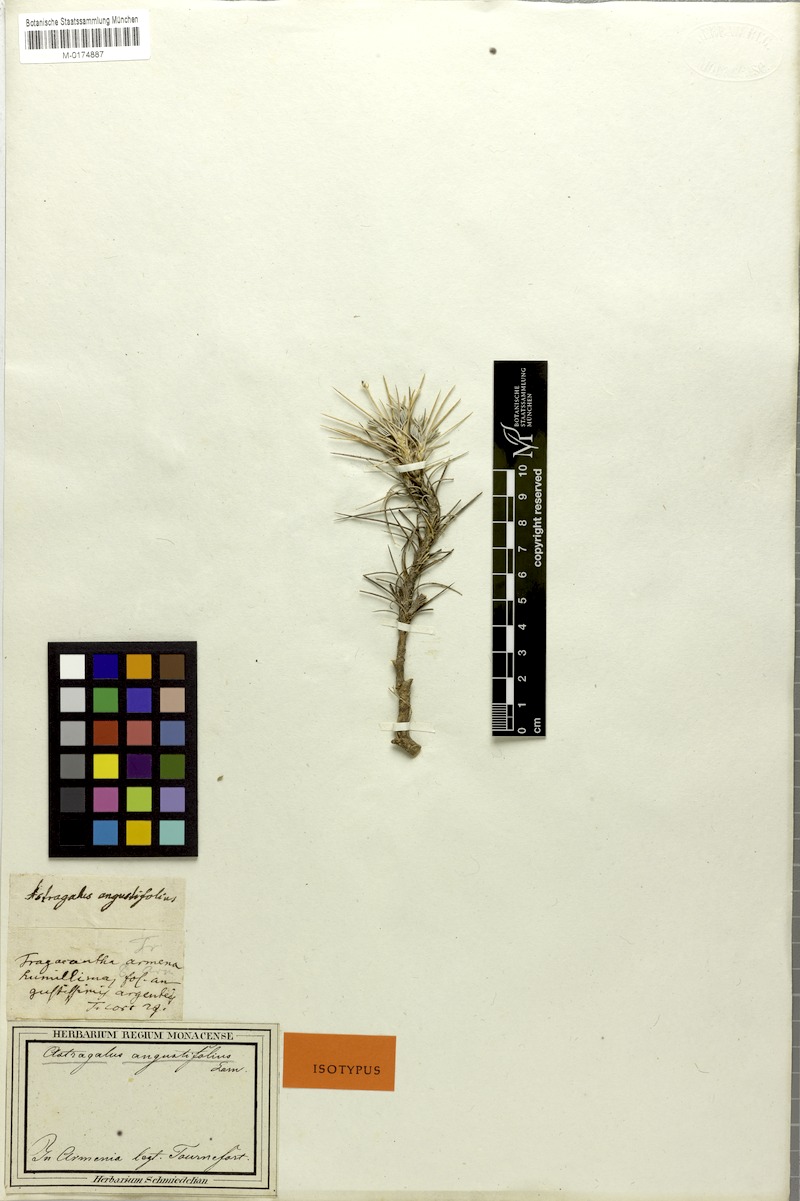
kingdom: Plantae
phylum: Tracheophyta
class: Magnoliopsida
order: Fabales
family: Fabaceae
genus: Astragalus
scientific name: Astragalus angustifolius
